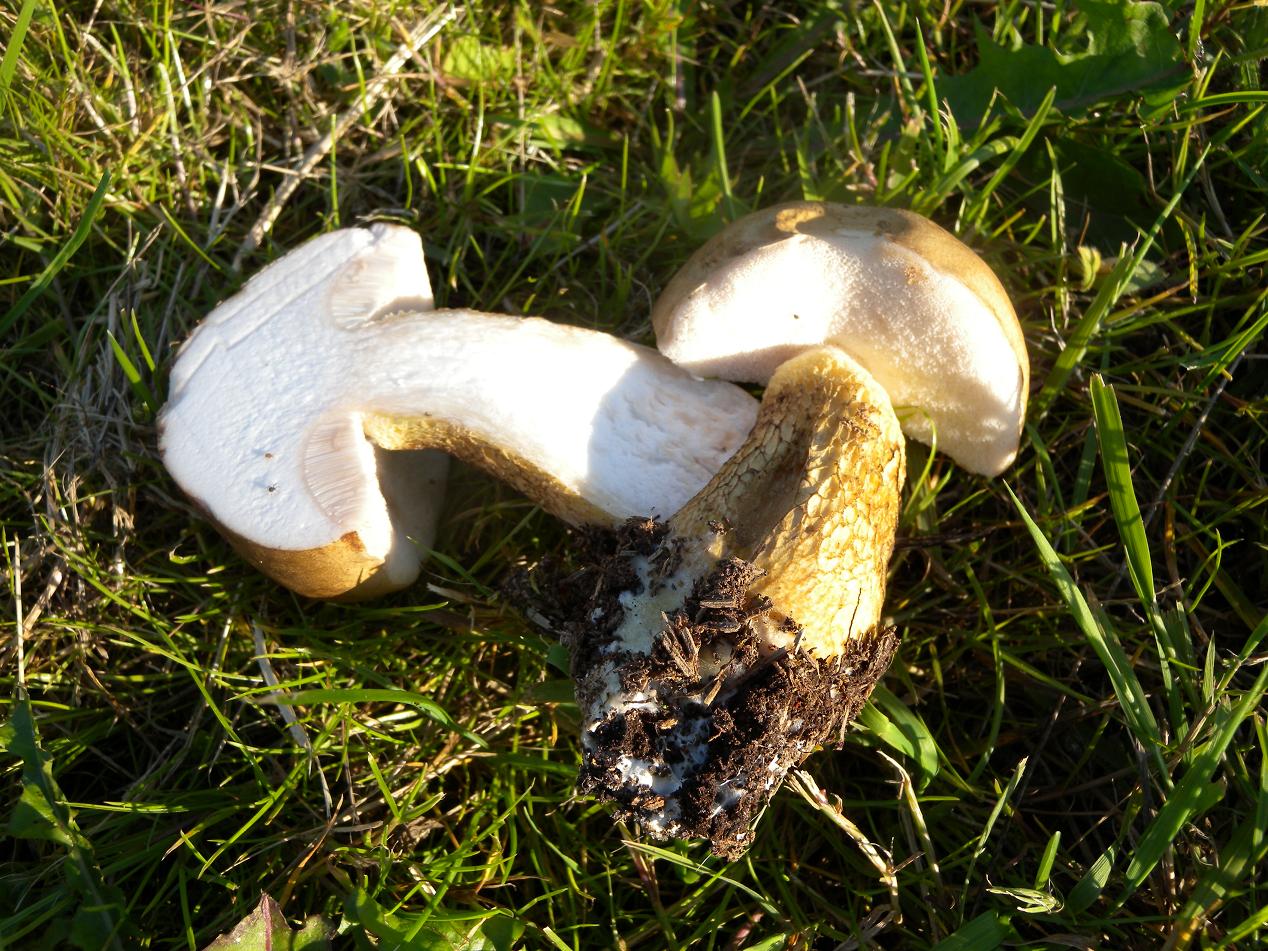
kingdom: Fungi
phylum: Basidiomycota
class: Agaricomycetes
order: Boletales
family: Boletaceae
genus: Tylopilus
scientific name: Tylopilus felleus
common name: galderørhat
